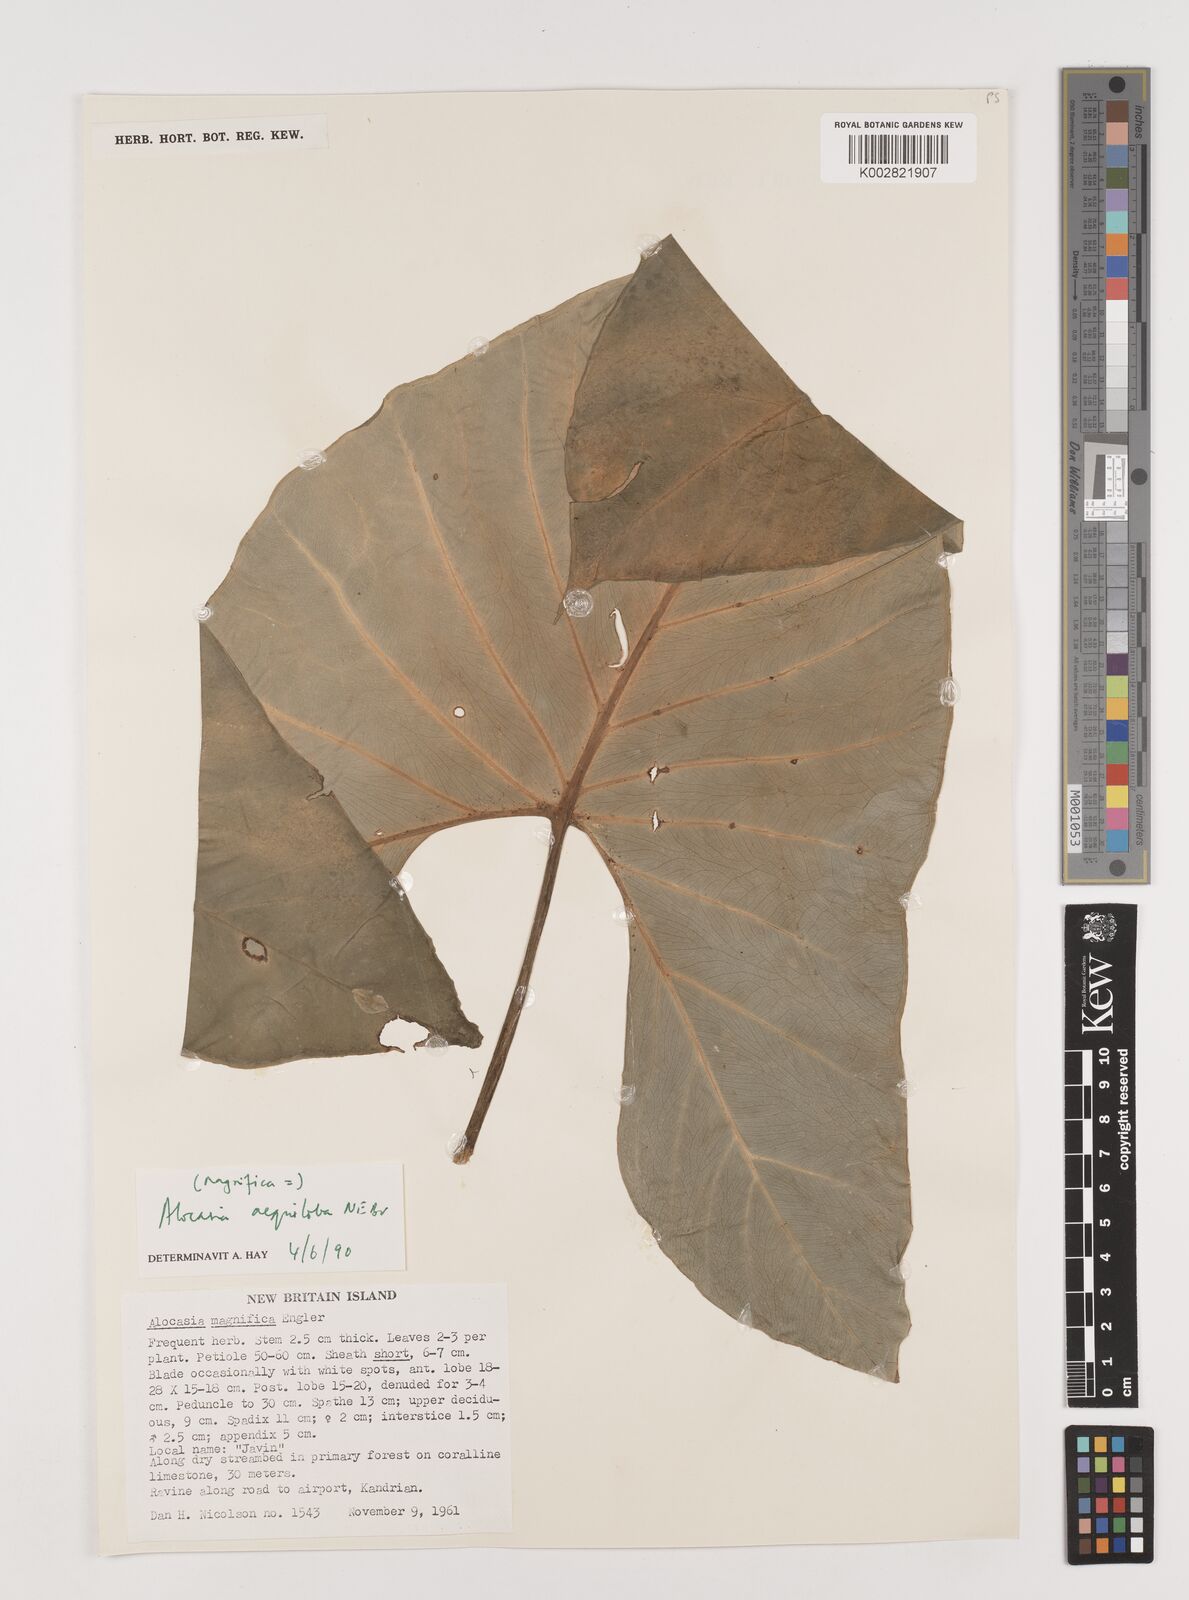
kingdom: Plantae
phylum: Tracheophyta
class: Liliopsida
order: Alismatales
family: Araceae
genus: Alocasia
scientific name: Alocasia aequiloba
